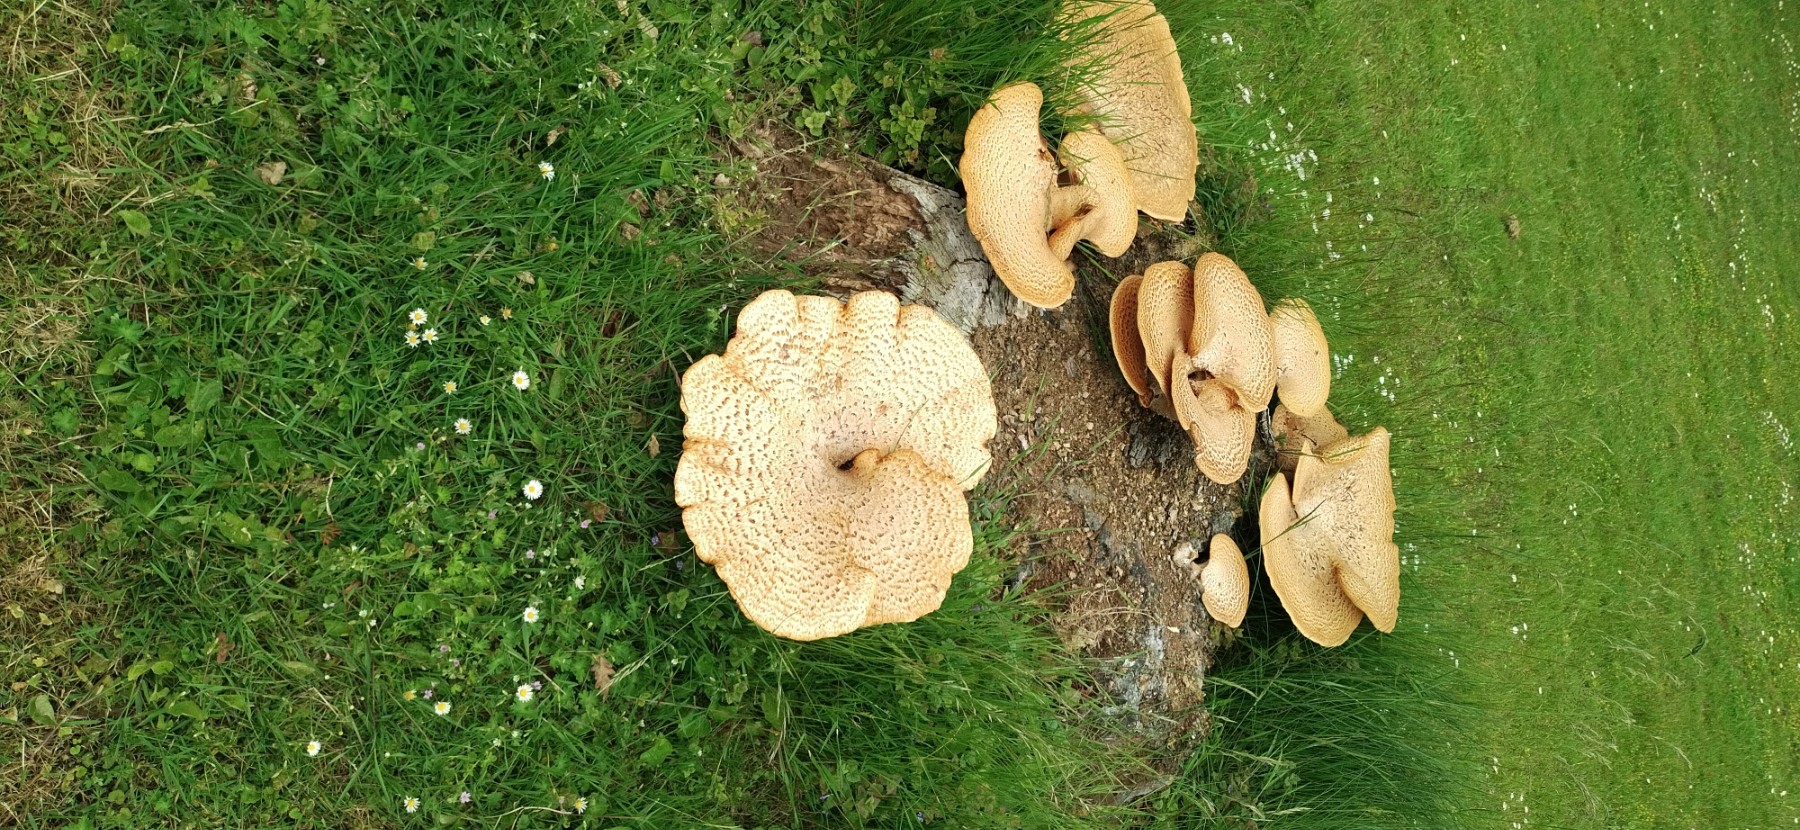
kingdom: Fungi
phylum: Basidiomycota
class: Agaricomycetes
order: Polyporales
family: Polyporaceae
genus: Cerioporus
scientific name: Cerioporus squamosus
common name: skællet stilkporesvamp
